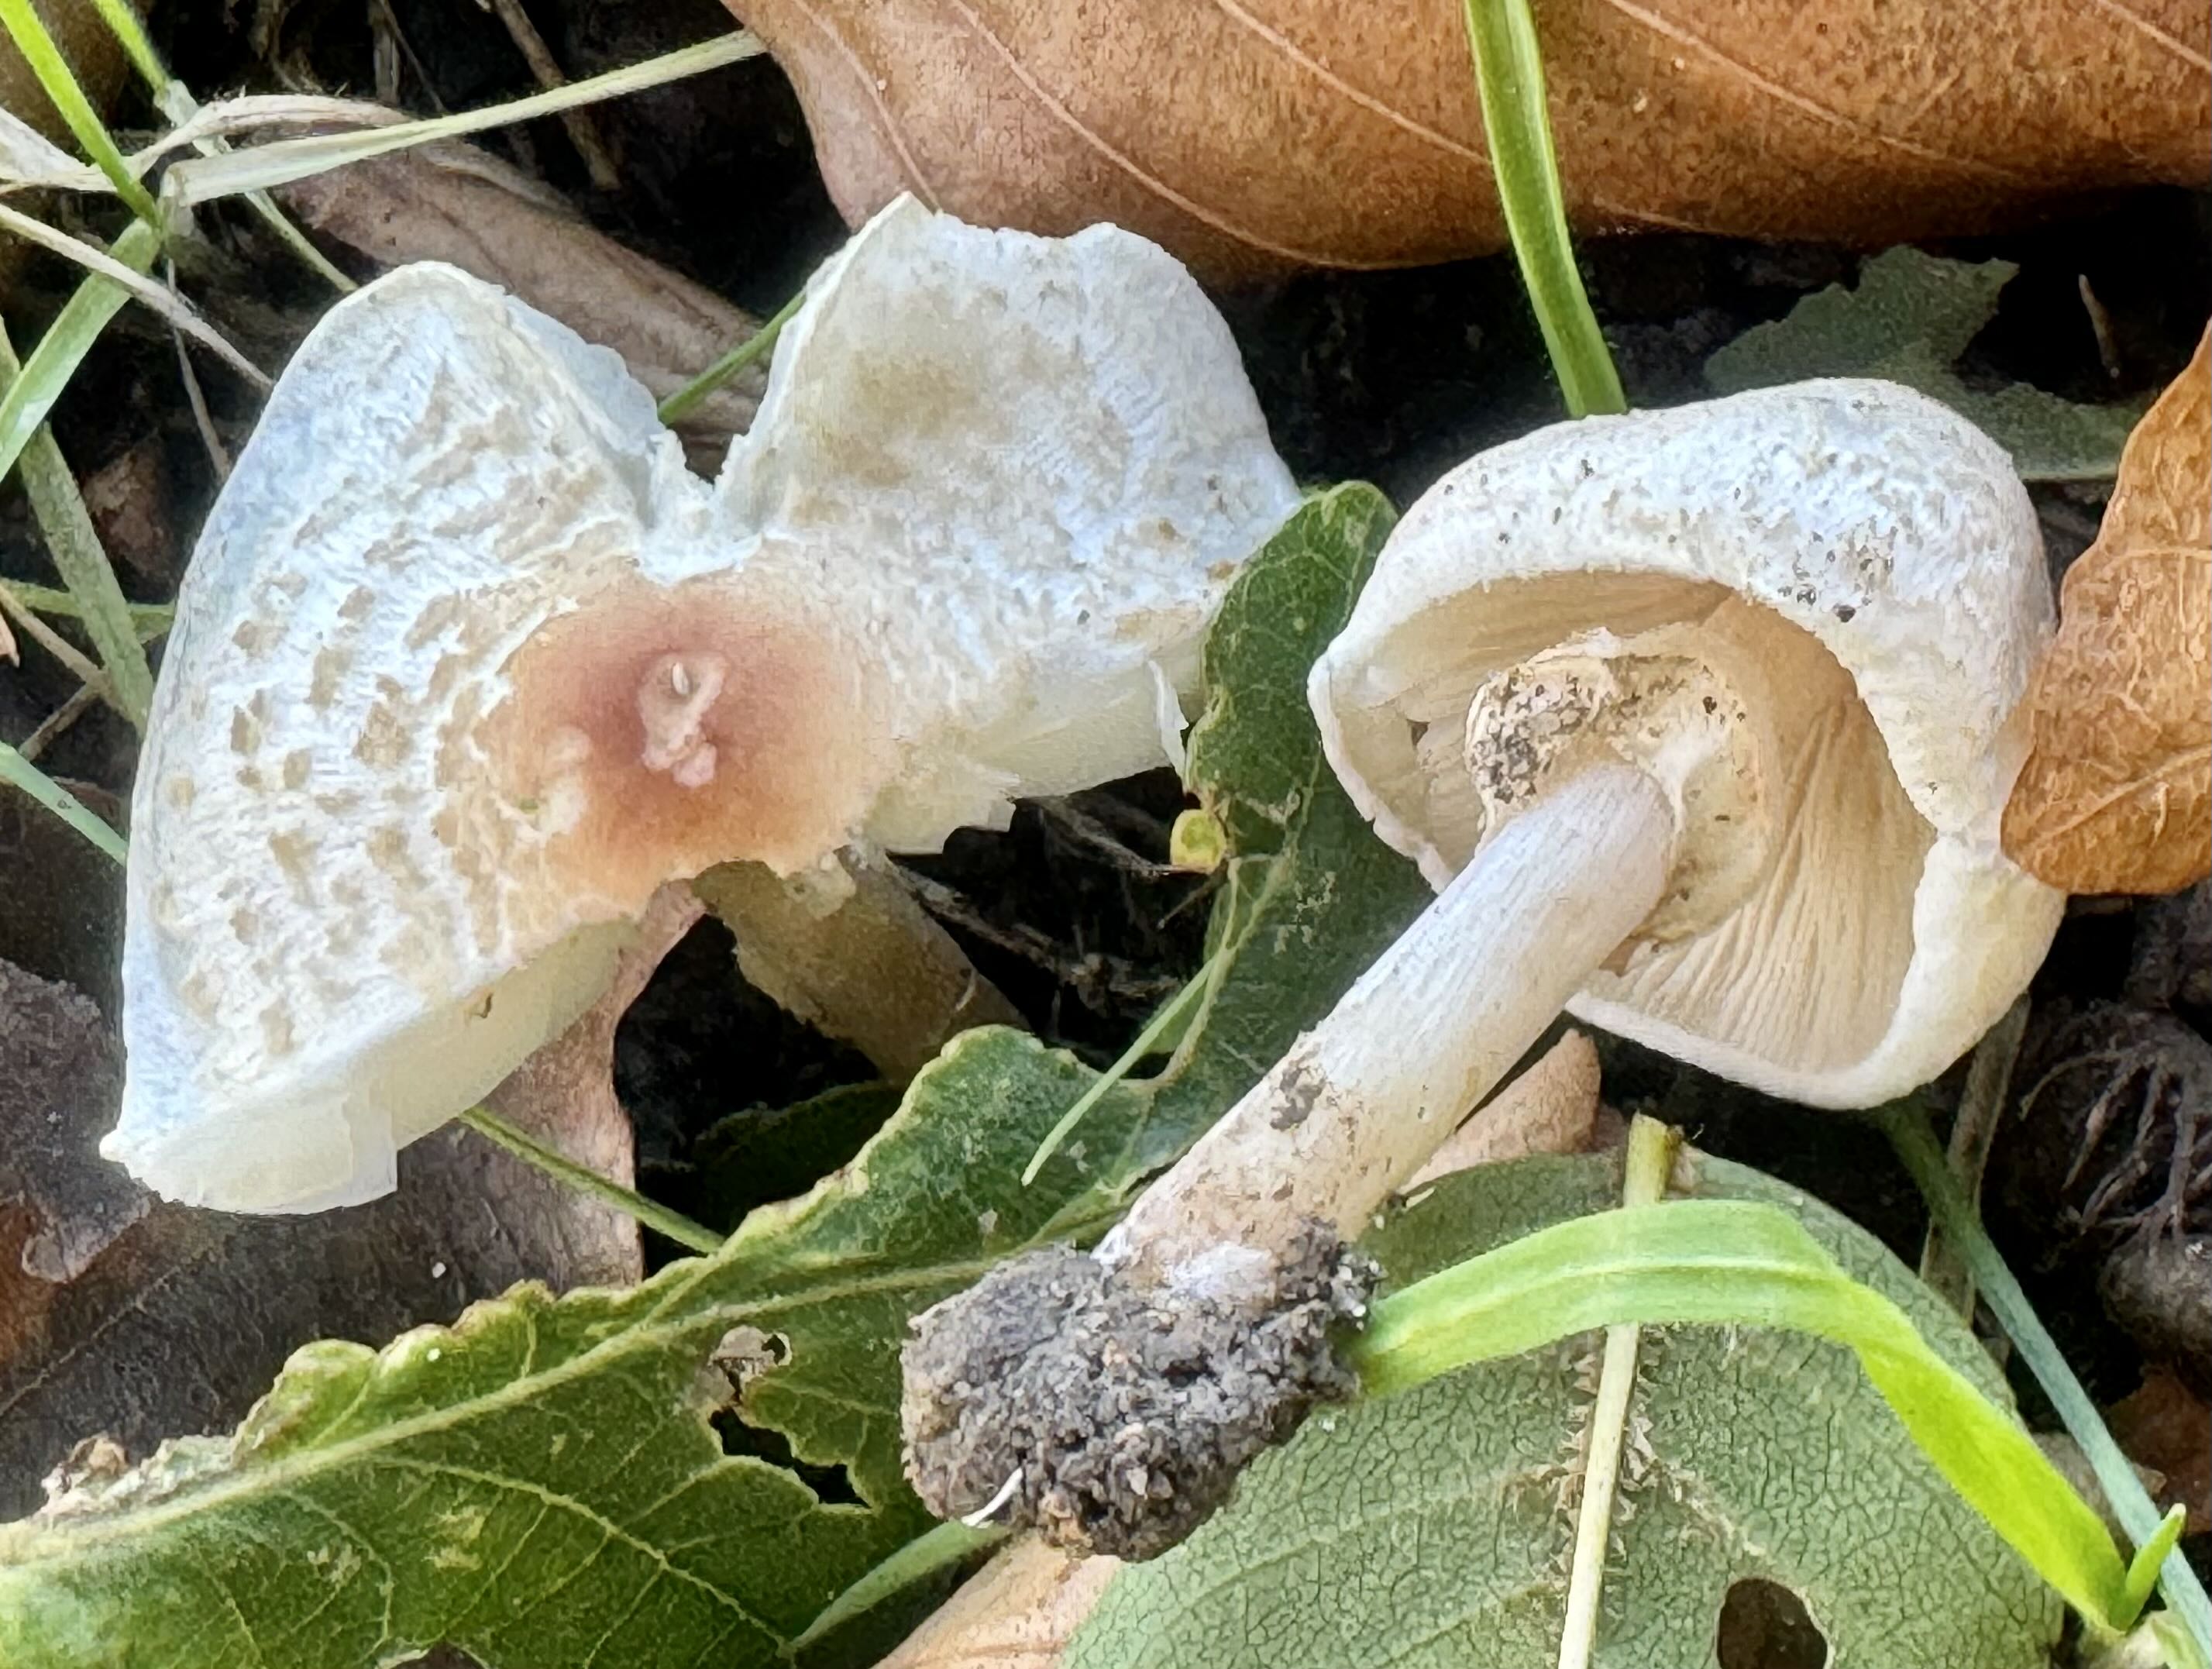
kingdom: Fungi
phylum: Basidiomycota
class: Agaricomycetes
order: Agaricales
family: Agaricaceae
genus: Lepiota
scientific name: Lepiota cristata
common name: stinkende parasolhat
